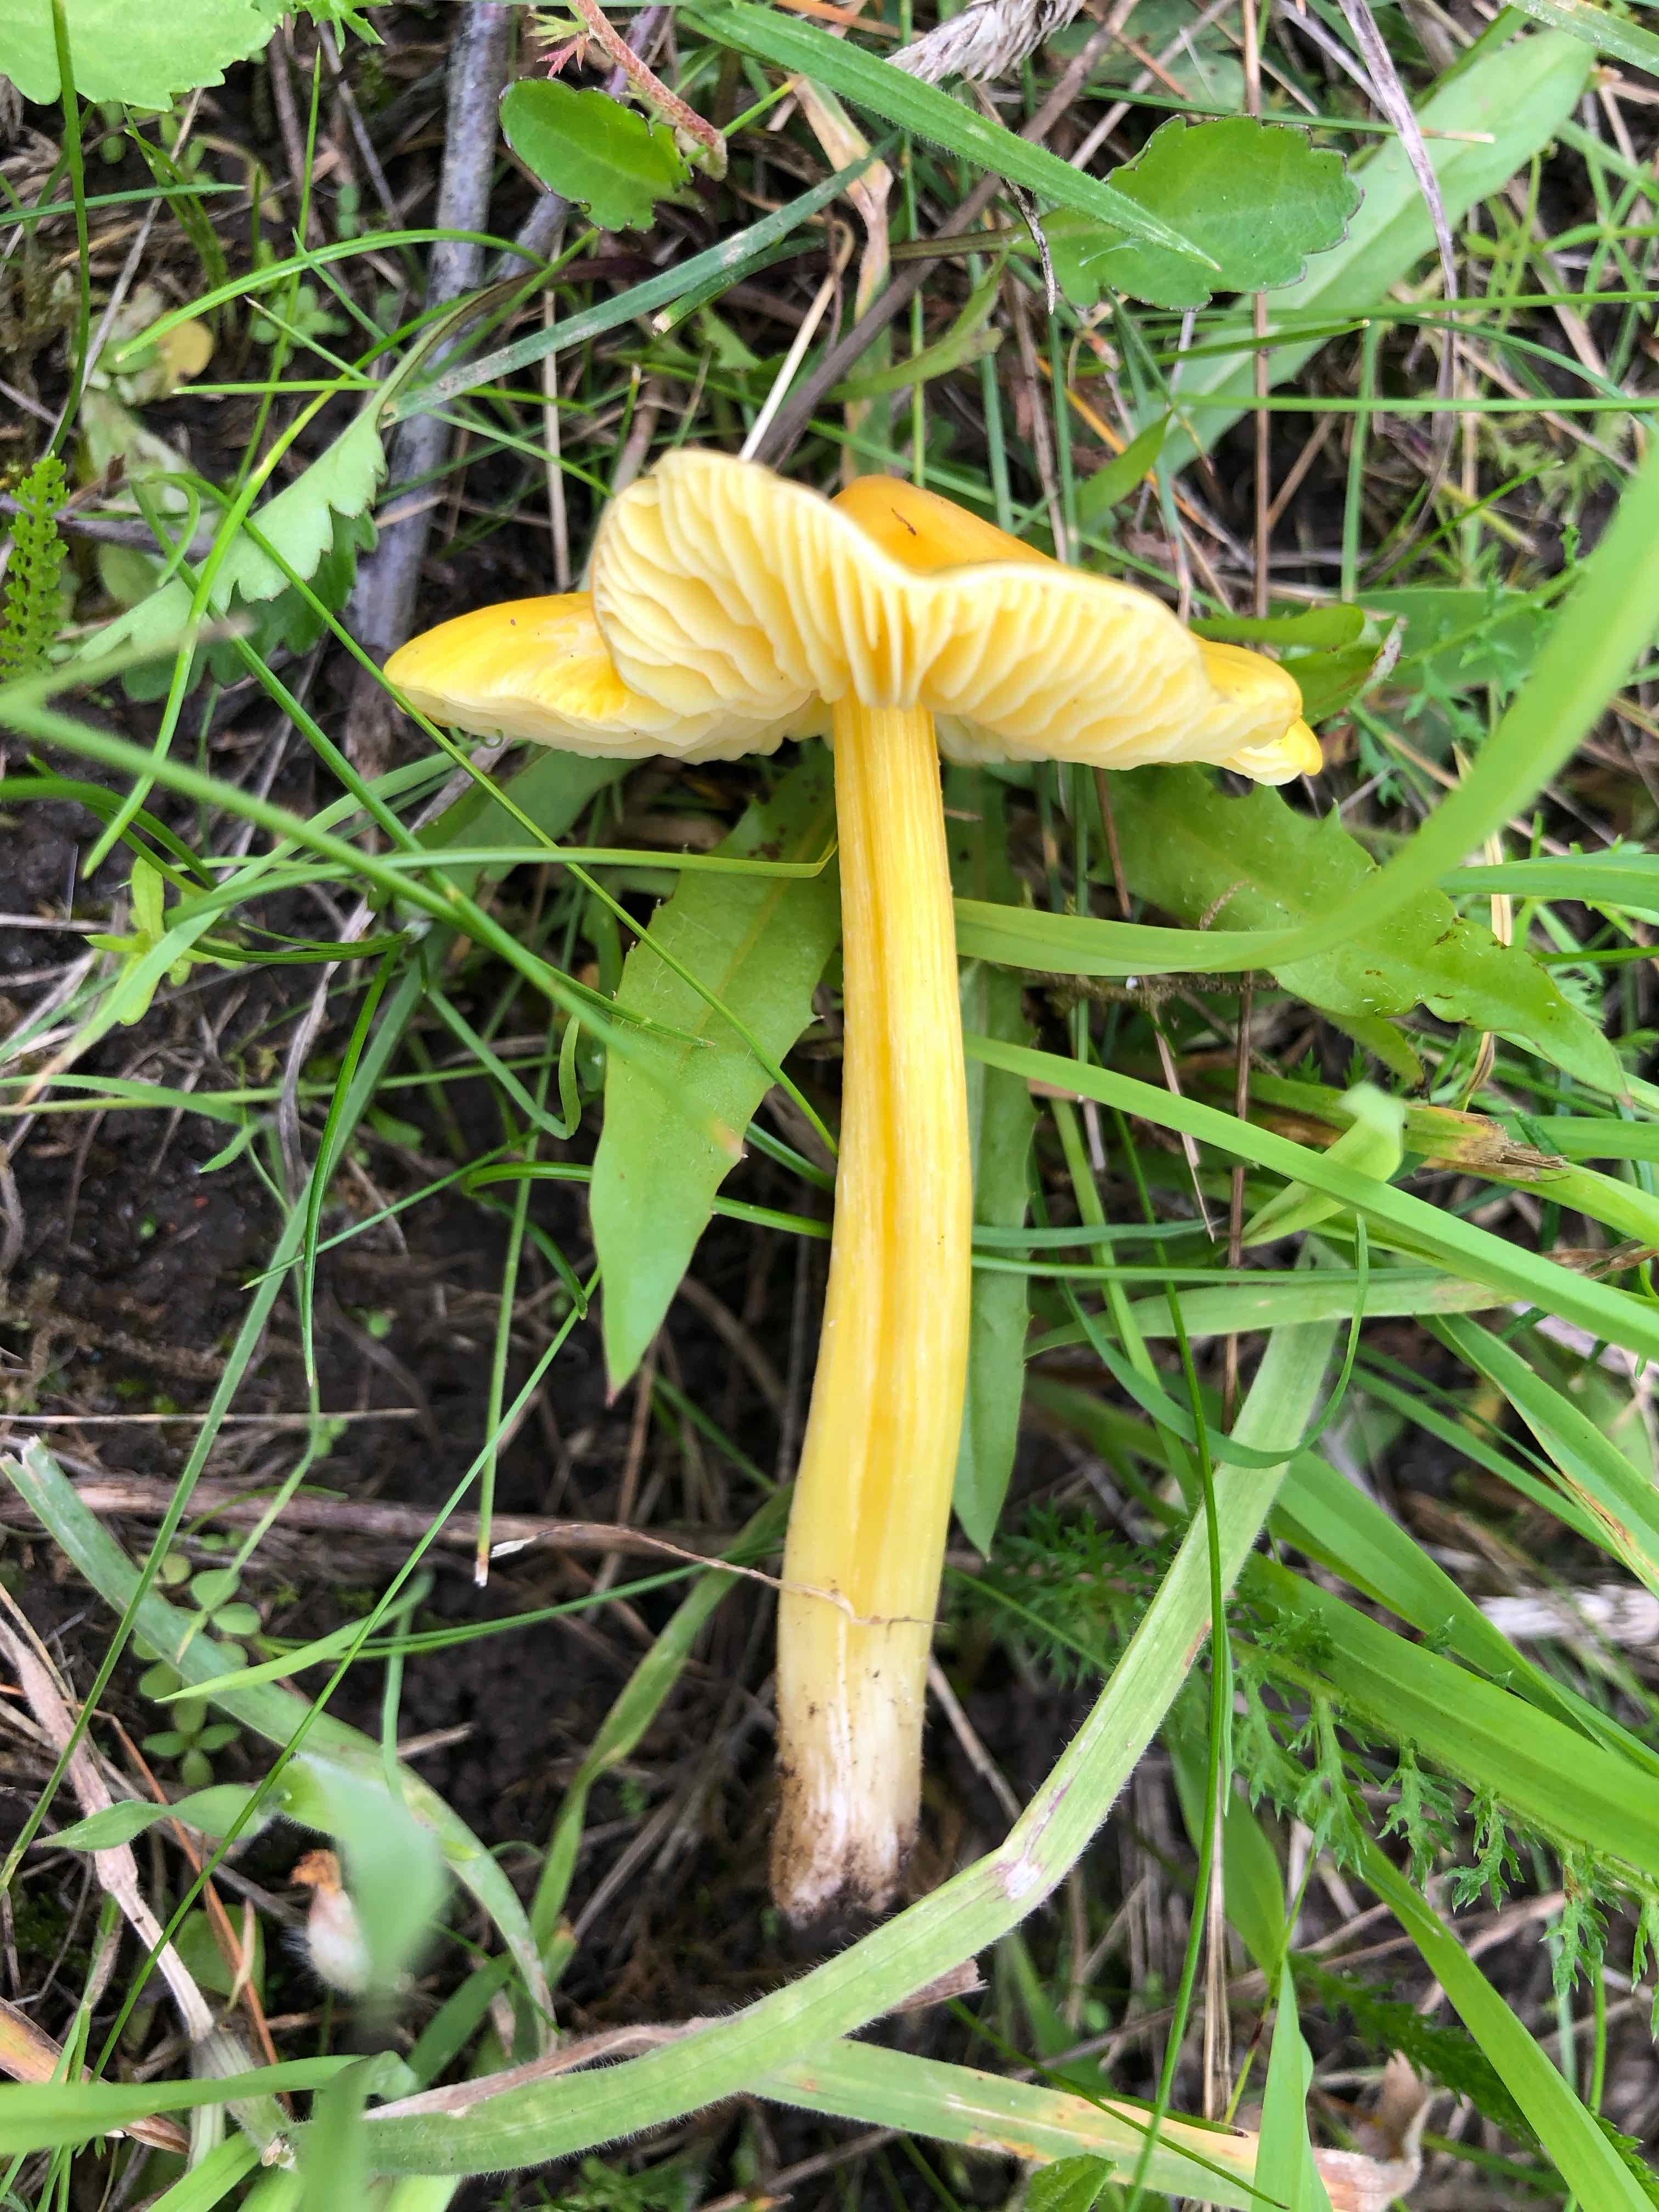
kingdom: Fungi
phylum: Basidiomycota
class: Agaricomycetes
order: Agaricales
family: Hygrophoraceae
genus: Hygrocybe
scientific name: Hygrocybe
